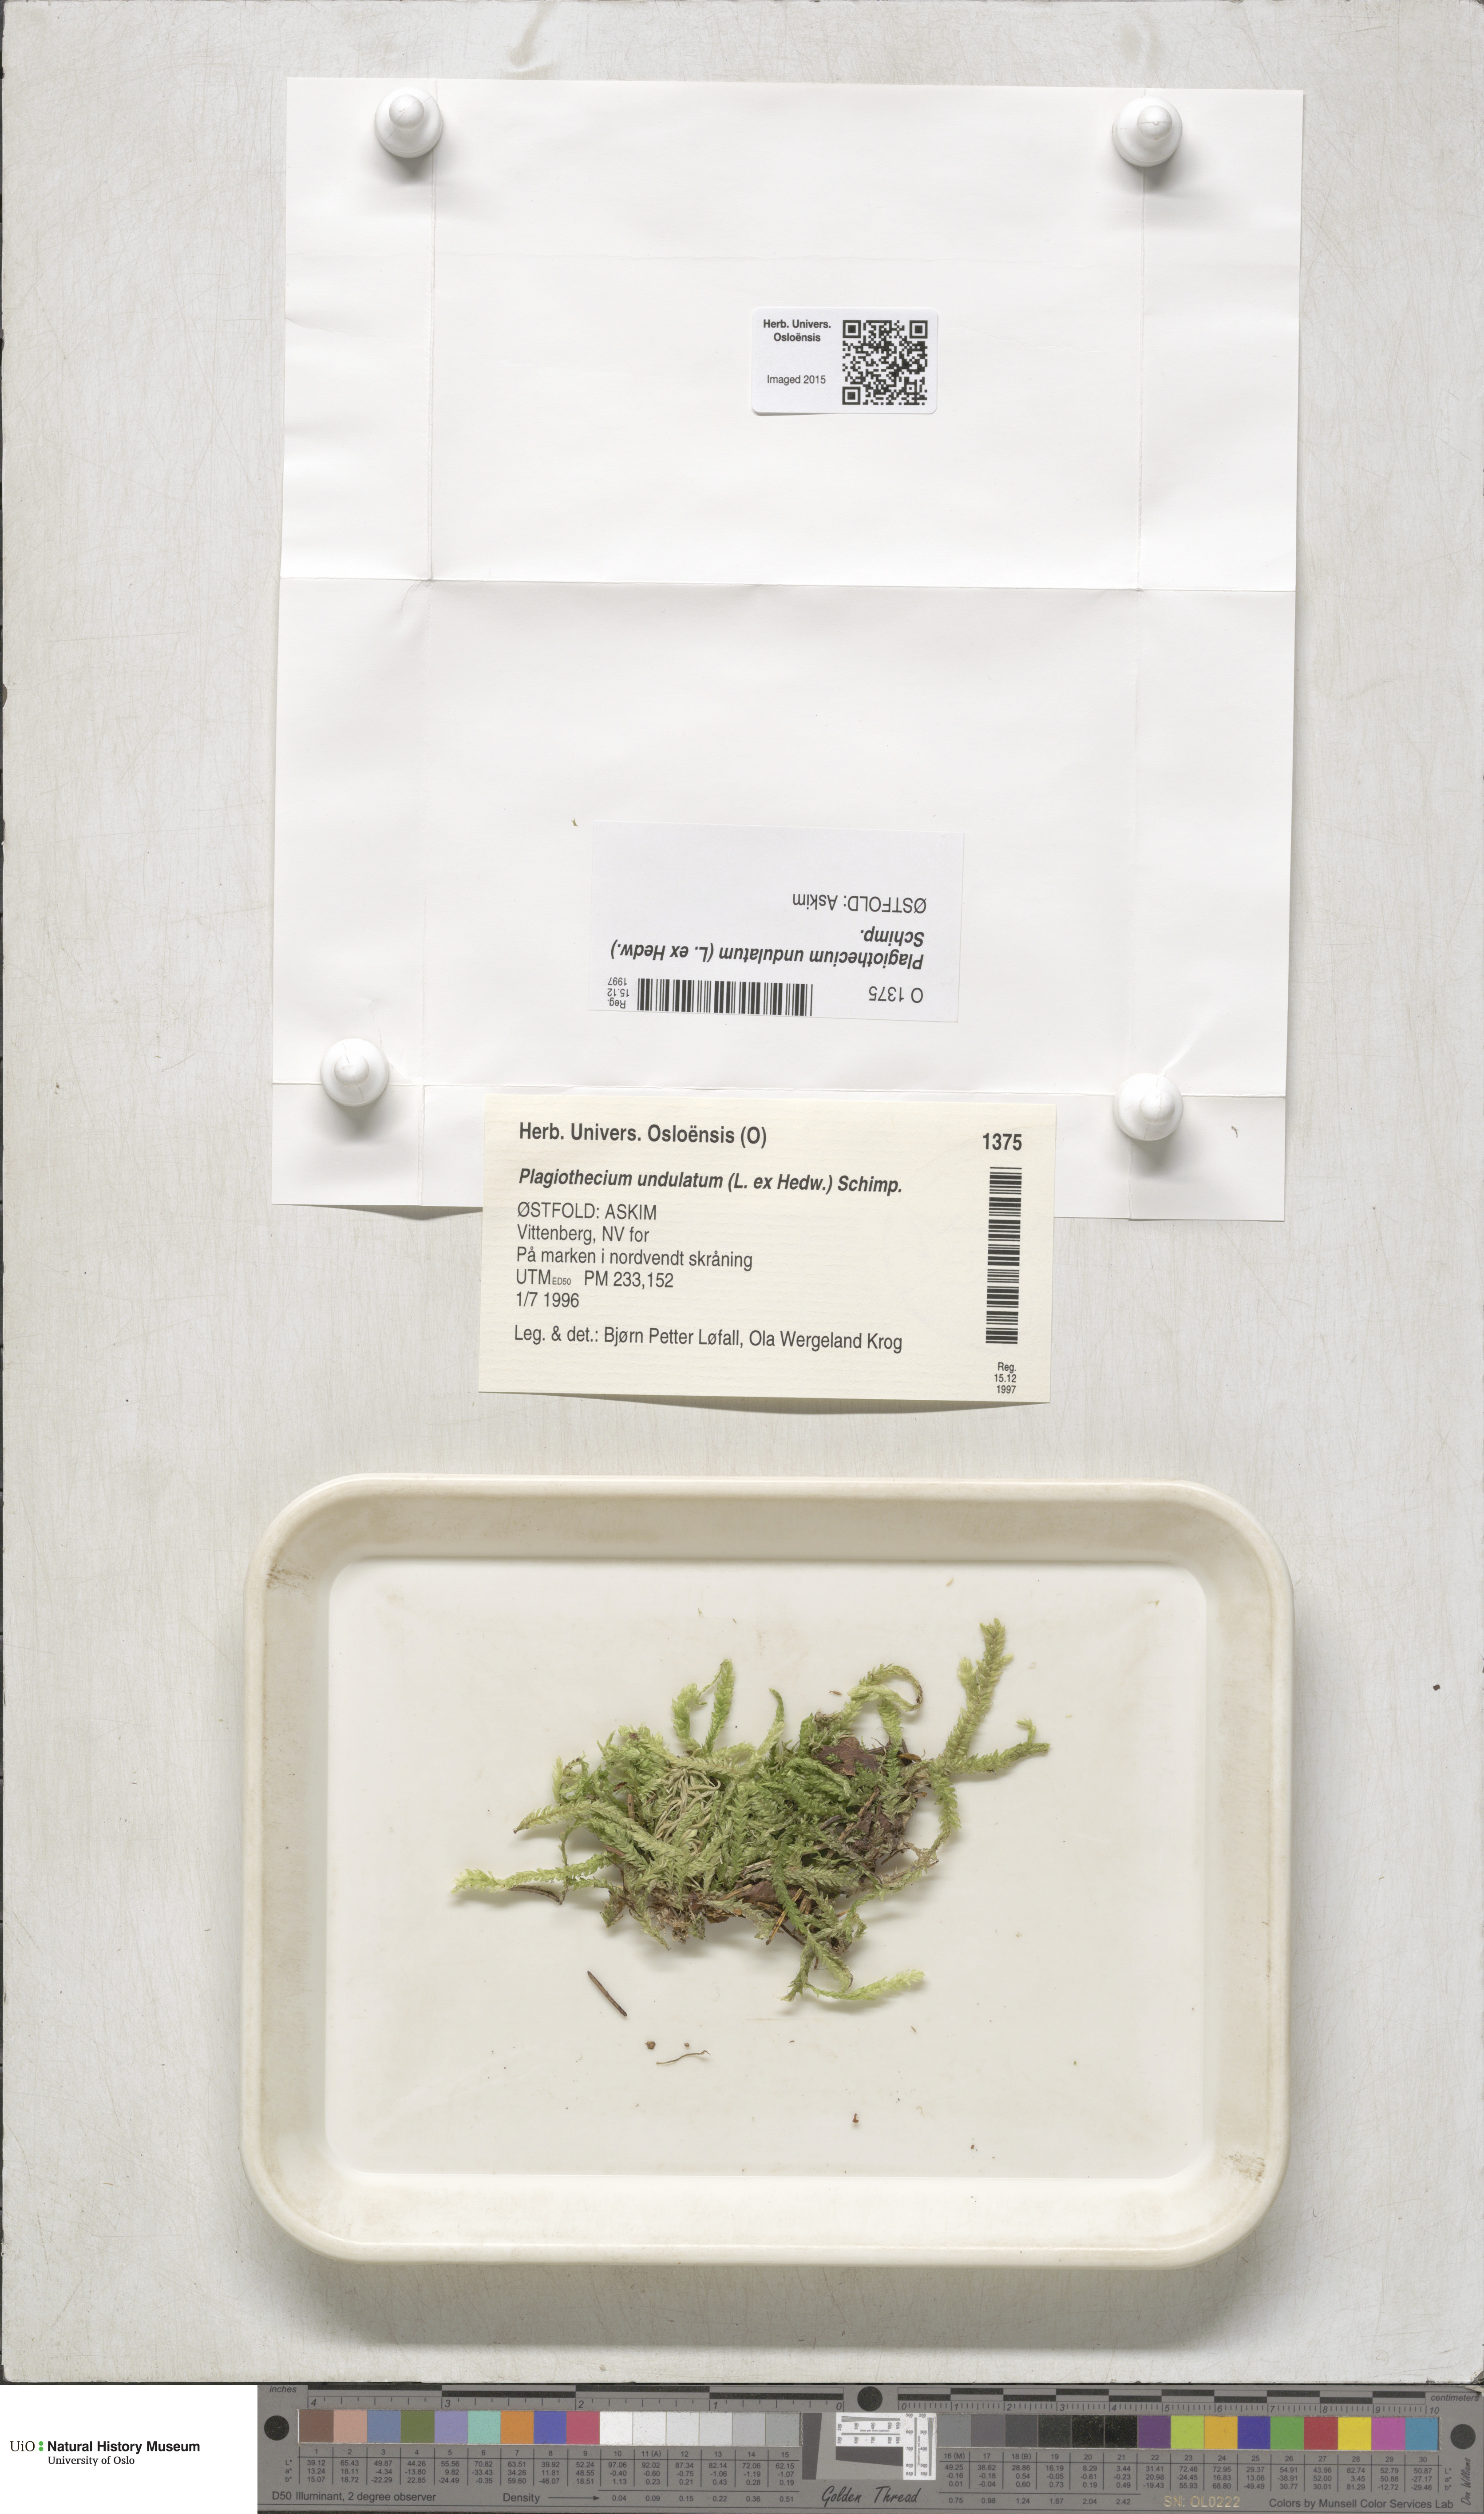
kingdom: Plantae
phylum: Bryophyta
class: Bryopsida
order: Hypnales
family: Plagiotheciaceae
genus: Plagiothecium
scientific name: Plagiothecium undulatum
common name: Waved silk-moss
